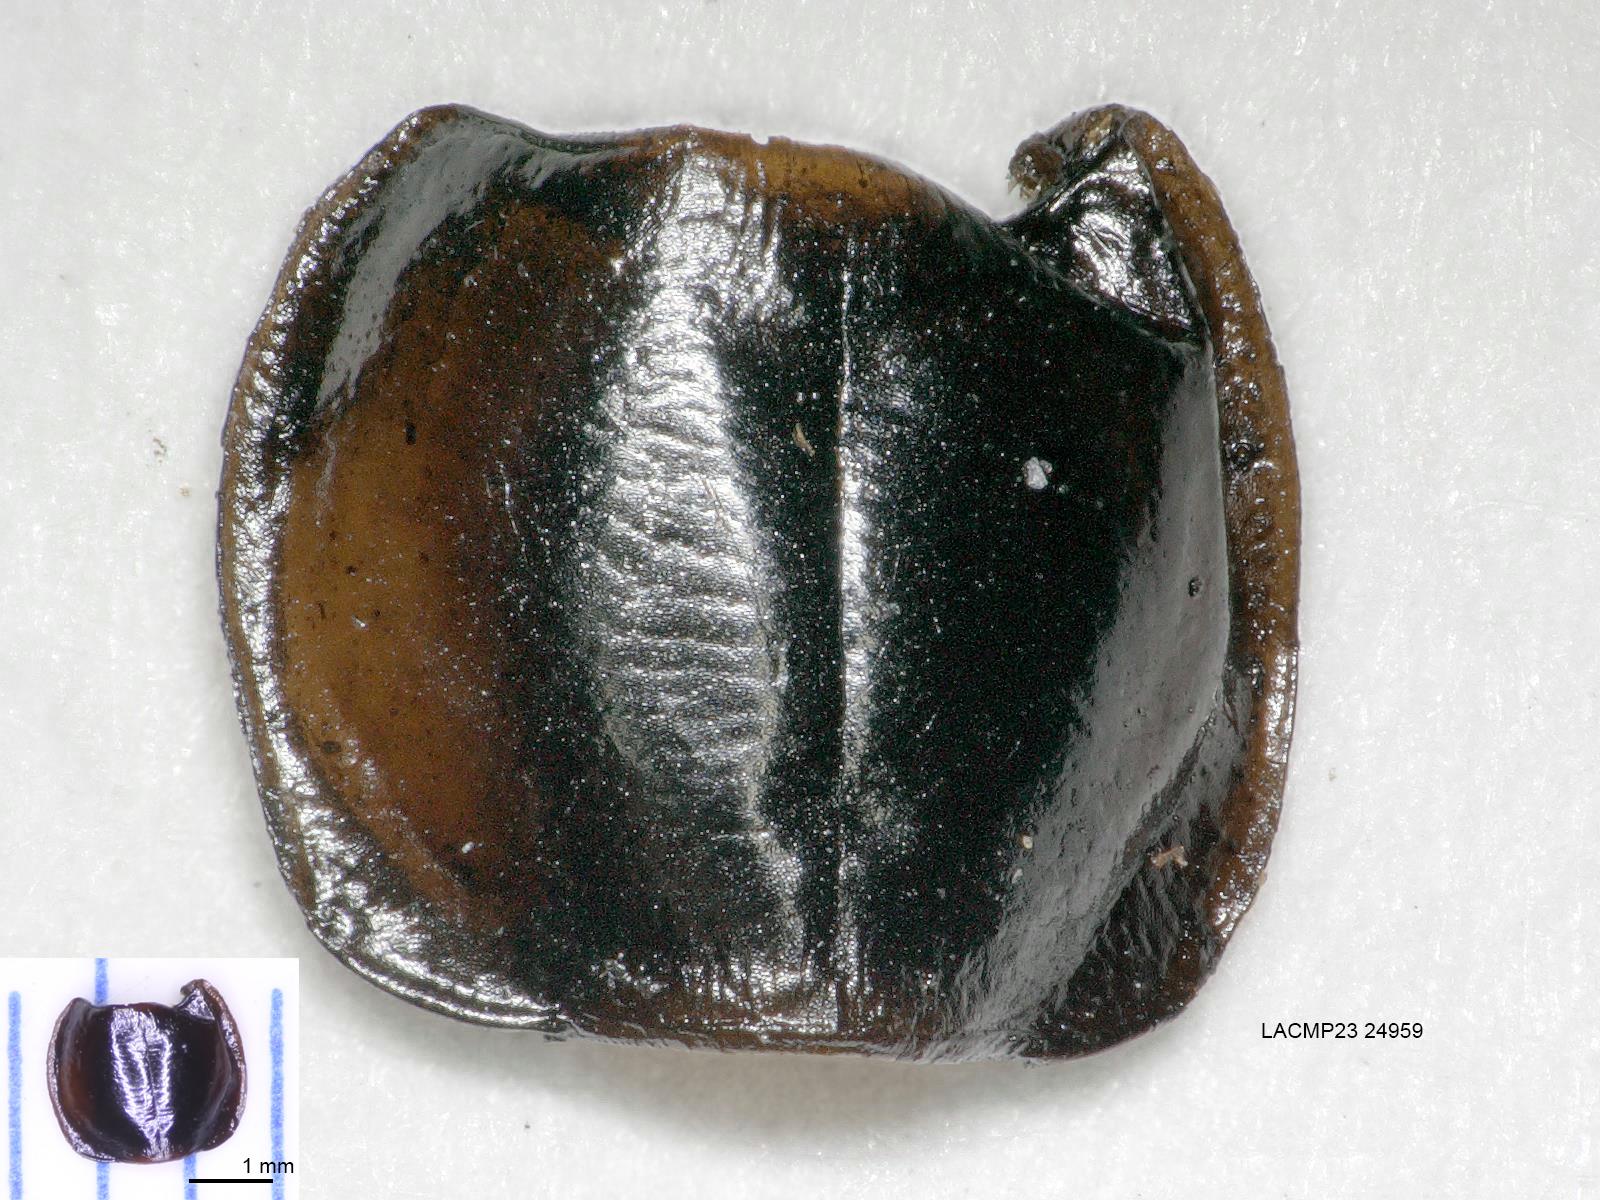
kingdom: Animalia
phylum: Arthropoda
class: Insecta
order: Coleoptera
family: Carabidae
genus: Tanystoma
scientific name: Tanystoma maculicolle
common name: Tule beetle
